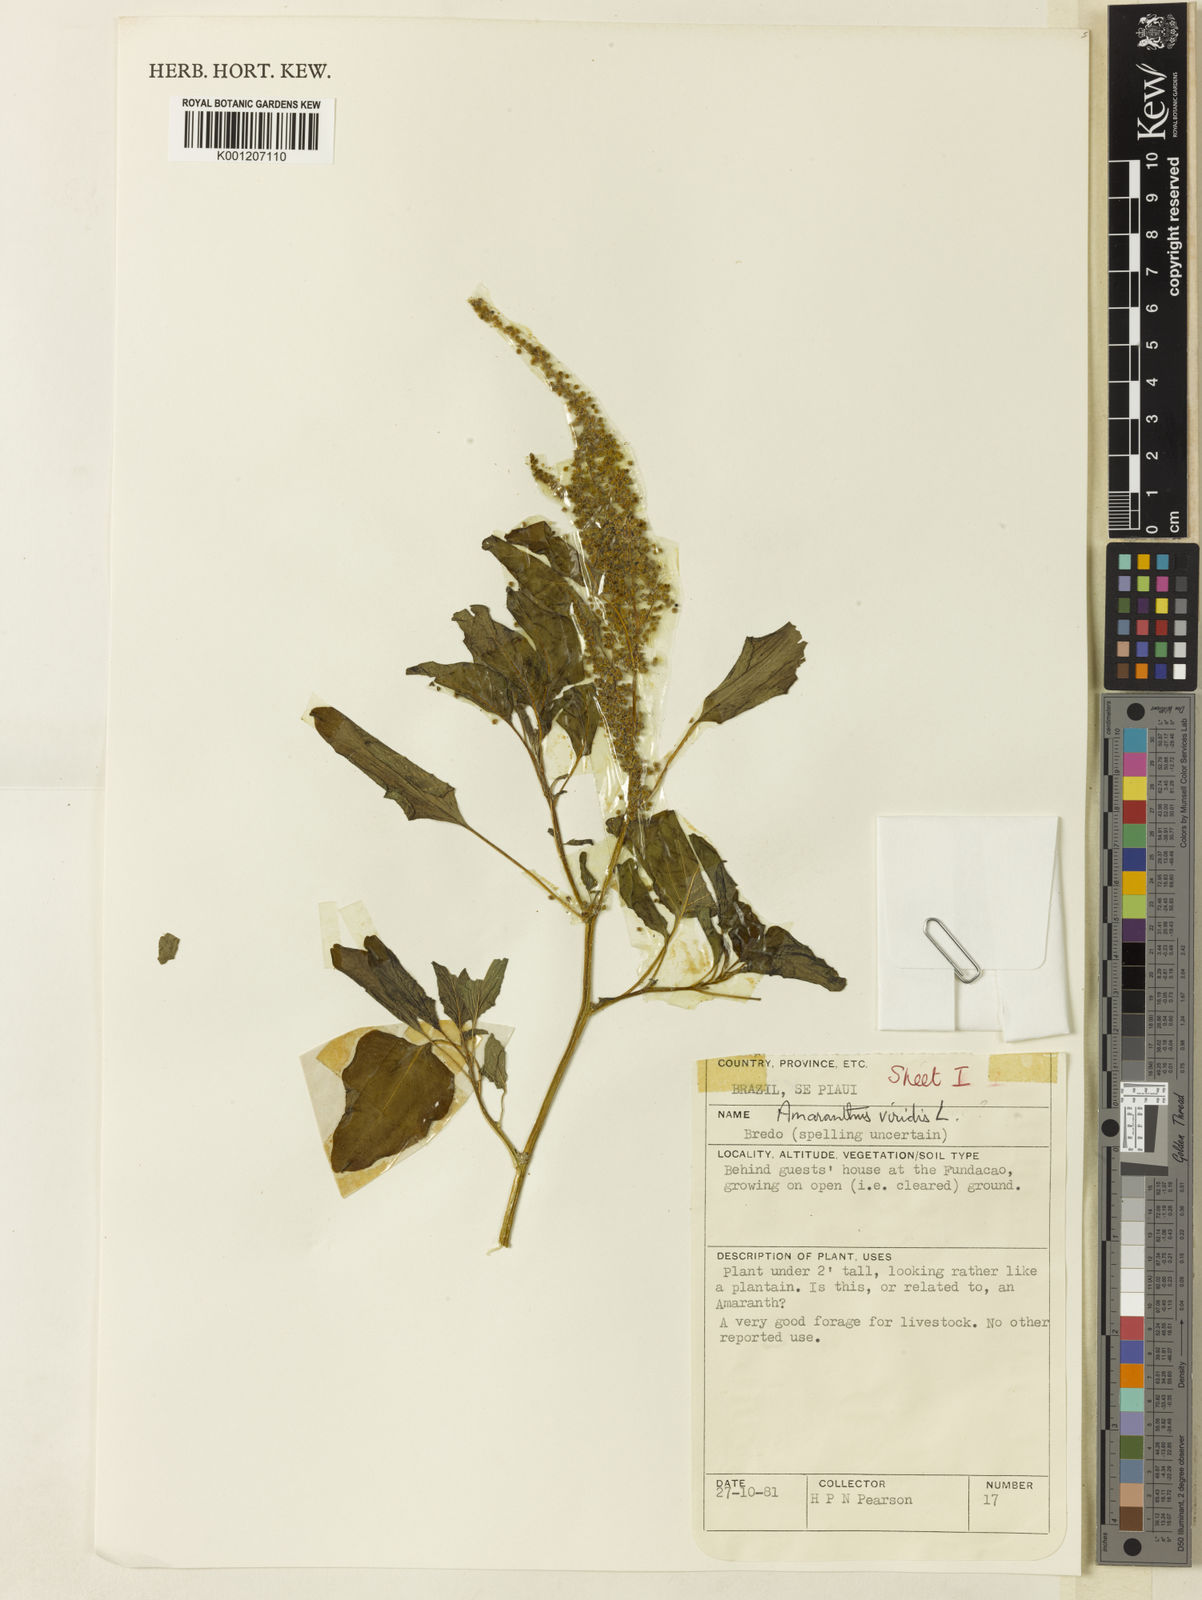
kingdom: Plantae
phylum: Tracheophyta
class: Magnoliopsida
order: Caryophyllales
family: Amaranthaceae
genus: Amaranthus
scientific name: Amaranthus viridis
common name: Slender amaranth
